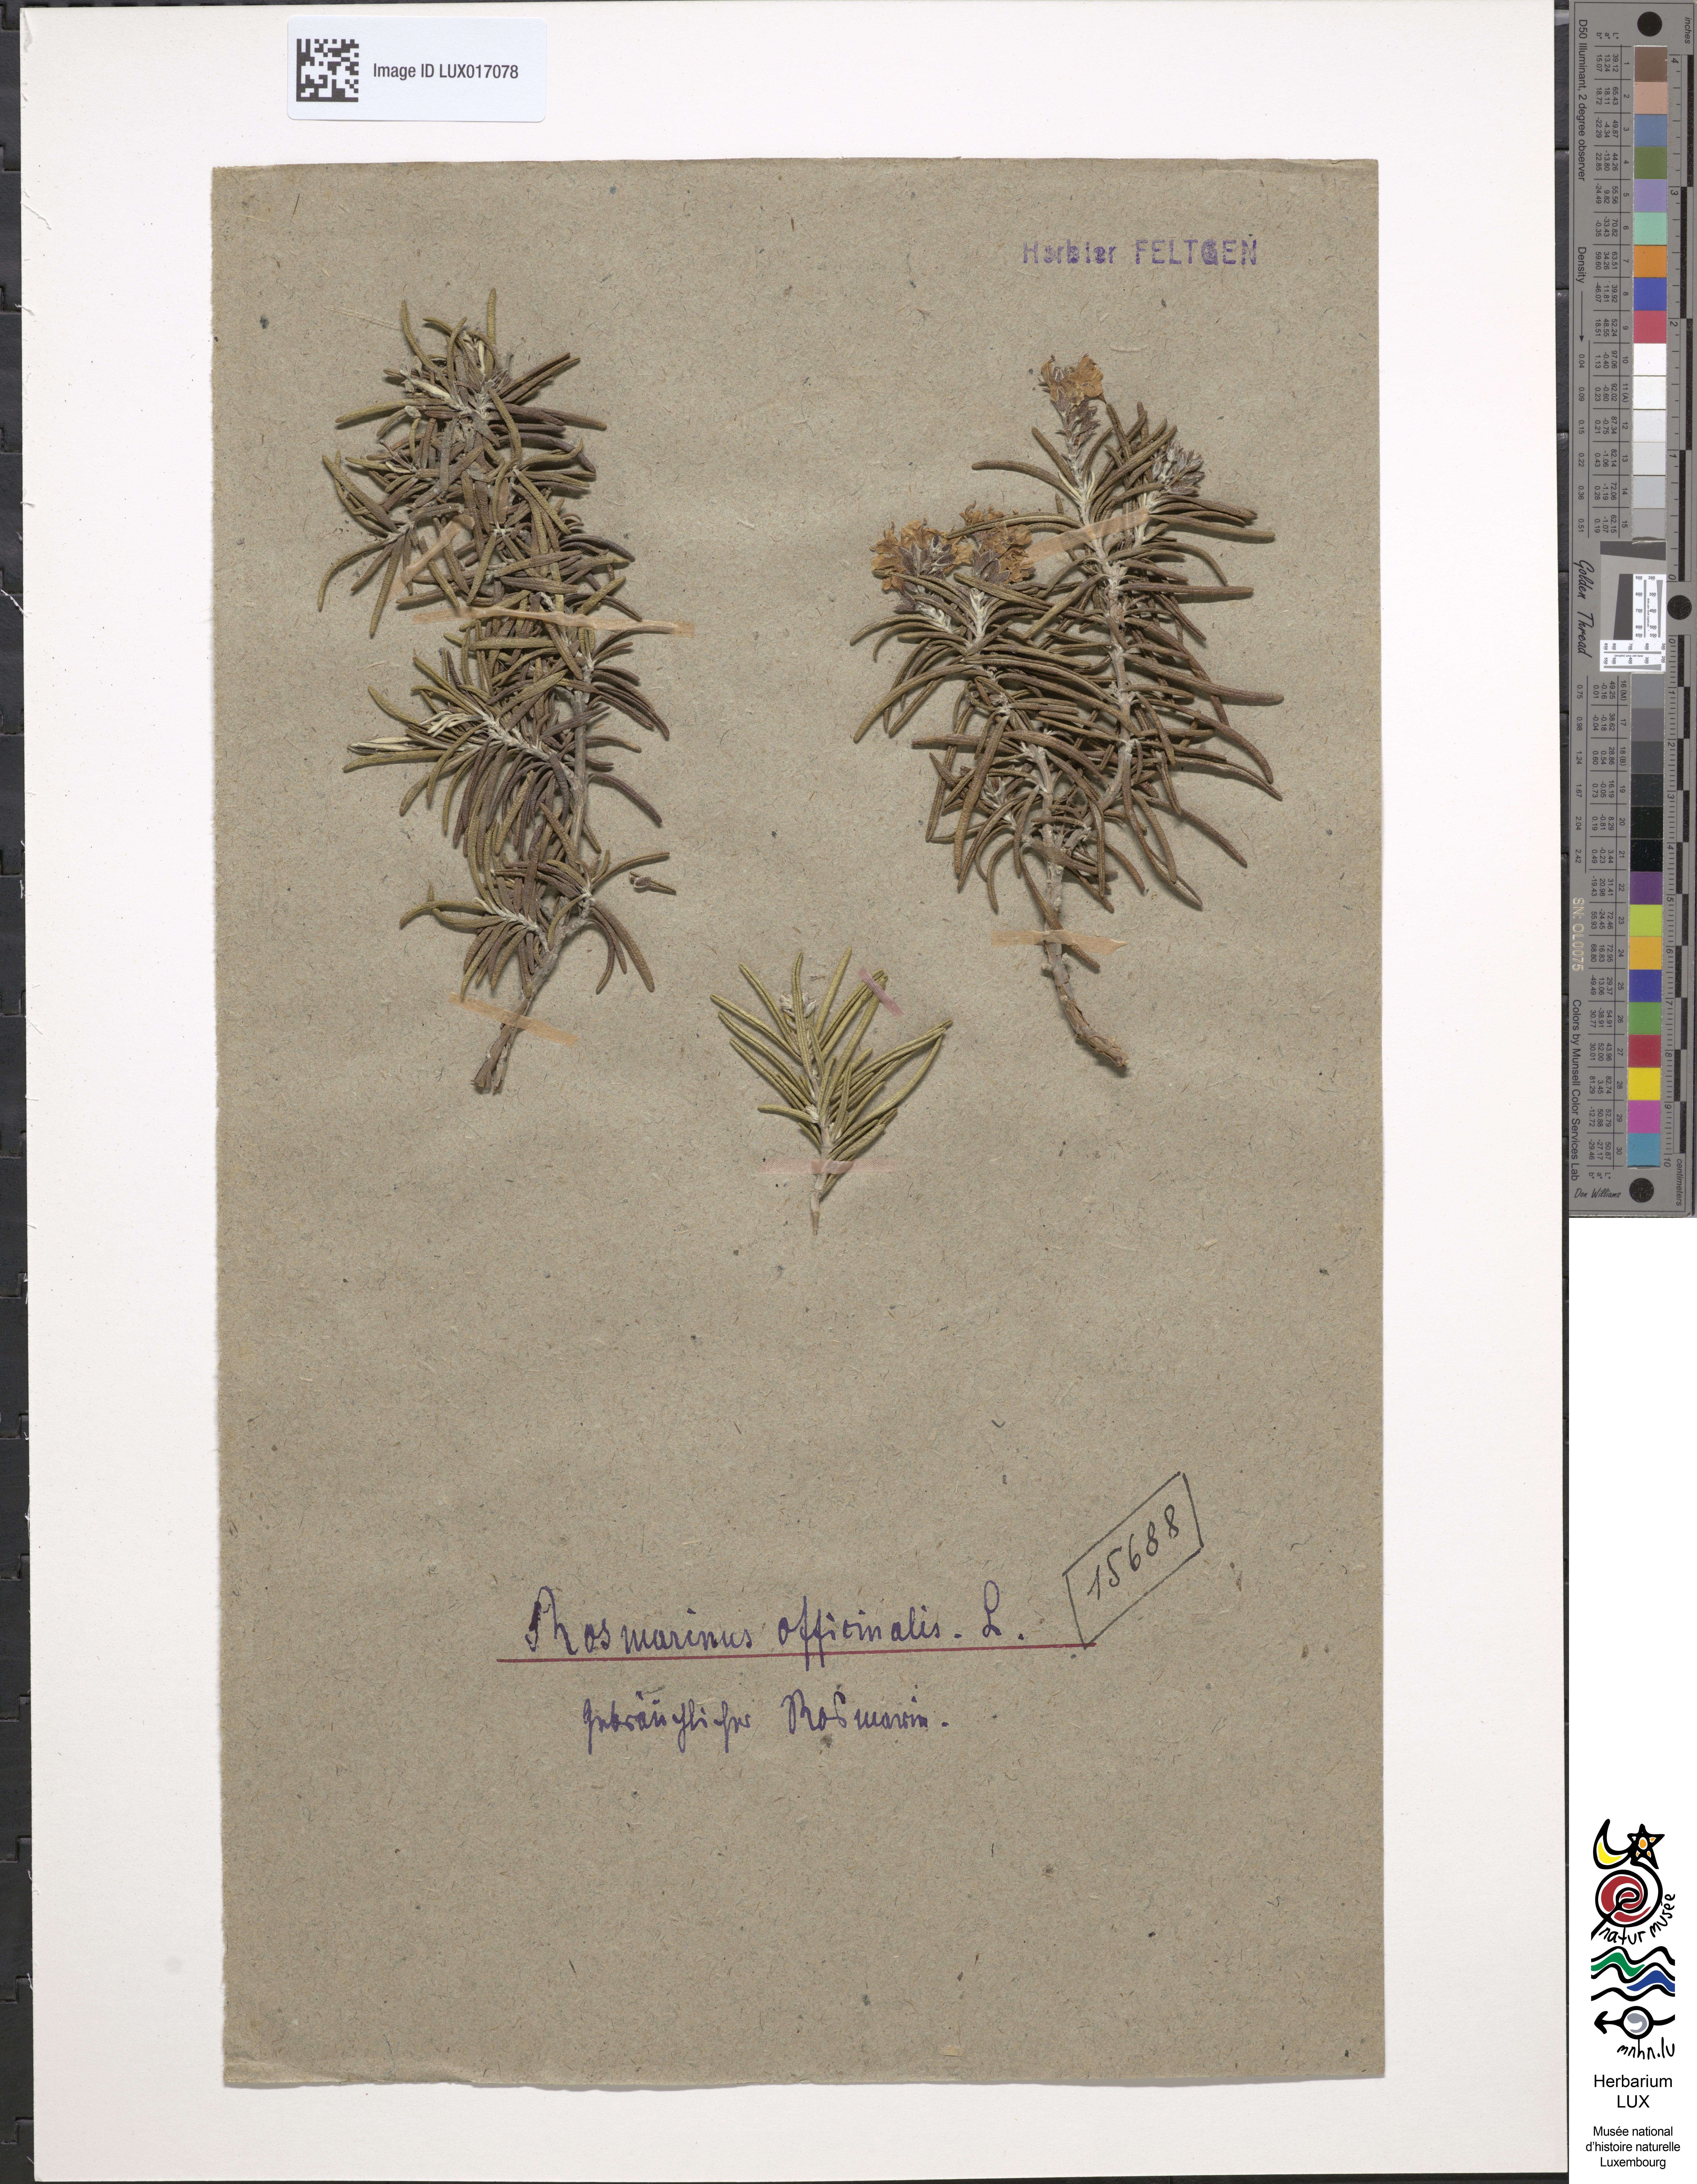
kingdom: Plantae
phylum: Tracheophyta
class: Magnoliopsida
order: Lamiales
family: Lamiaceae
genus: Salvia
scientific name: Salvia rosmarinus
